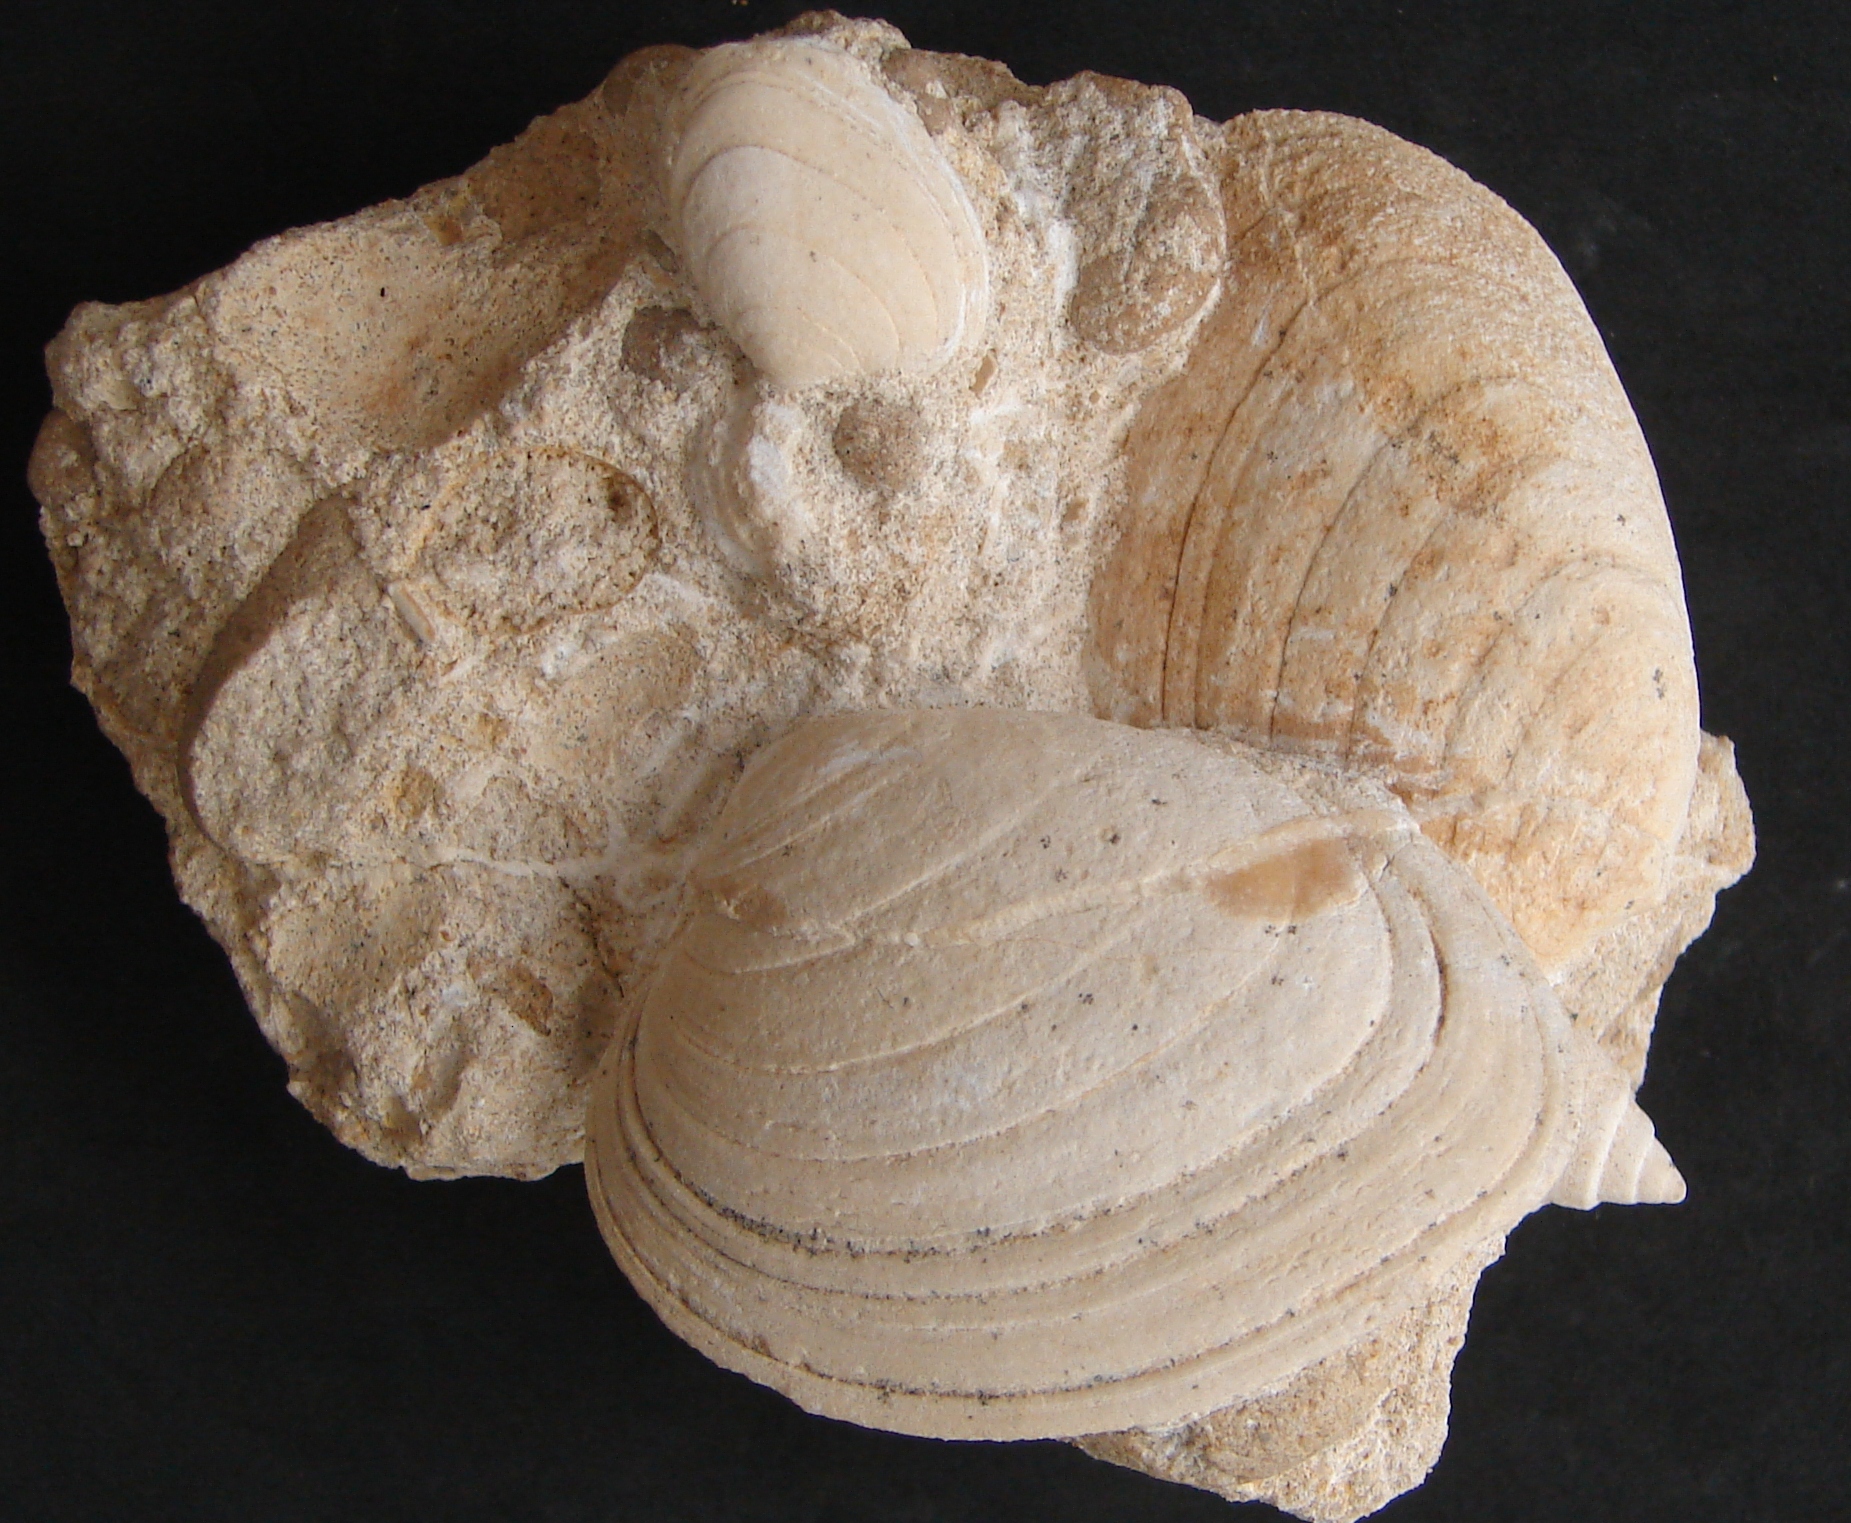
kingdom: Animalia
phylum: Mollusca
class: Bivalvia
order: Carditida
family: Cardiniidae
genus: Cardinia
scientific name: Cardinia
